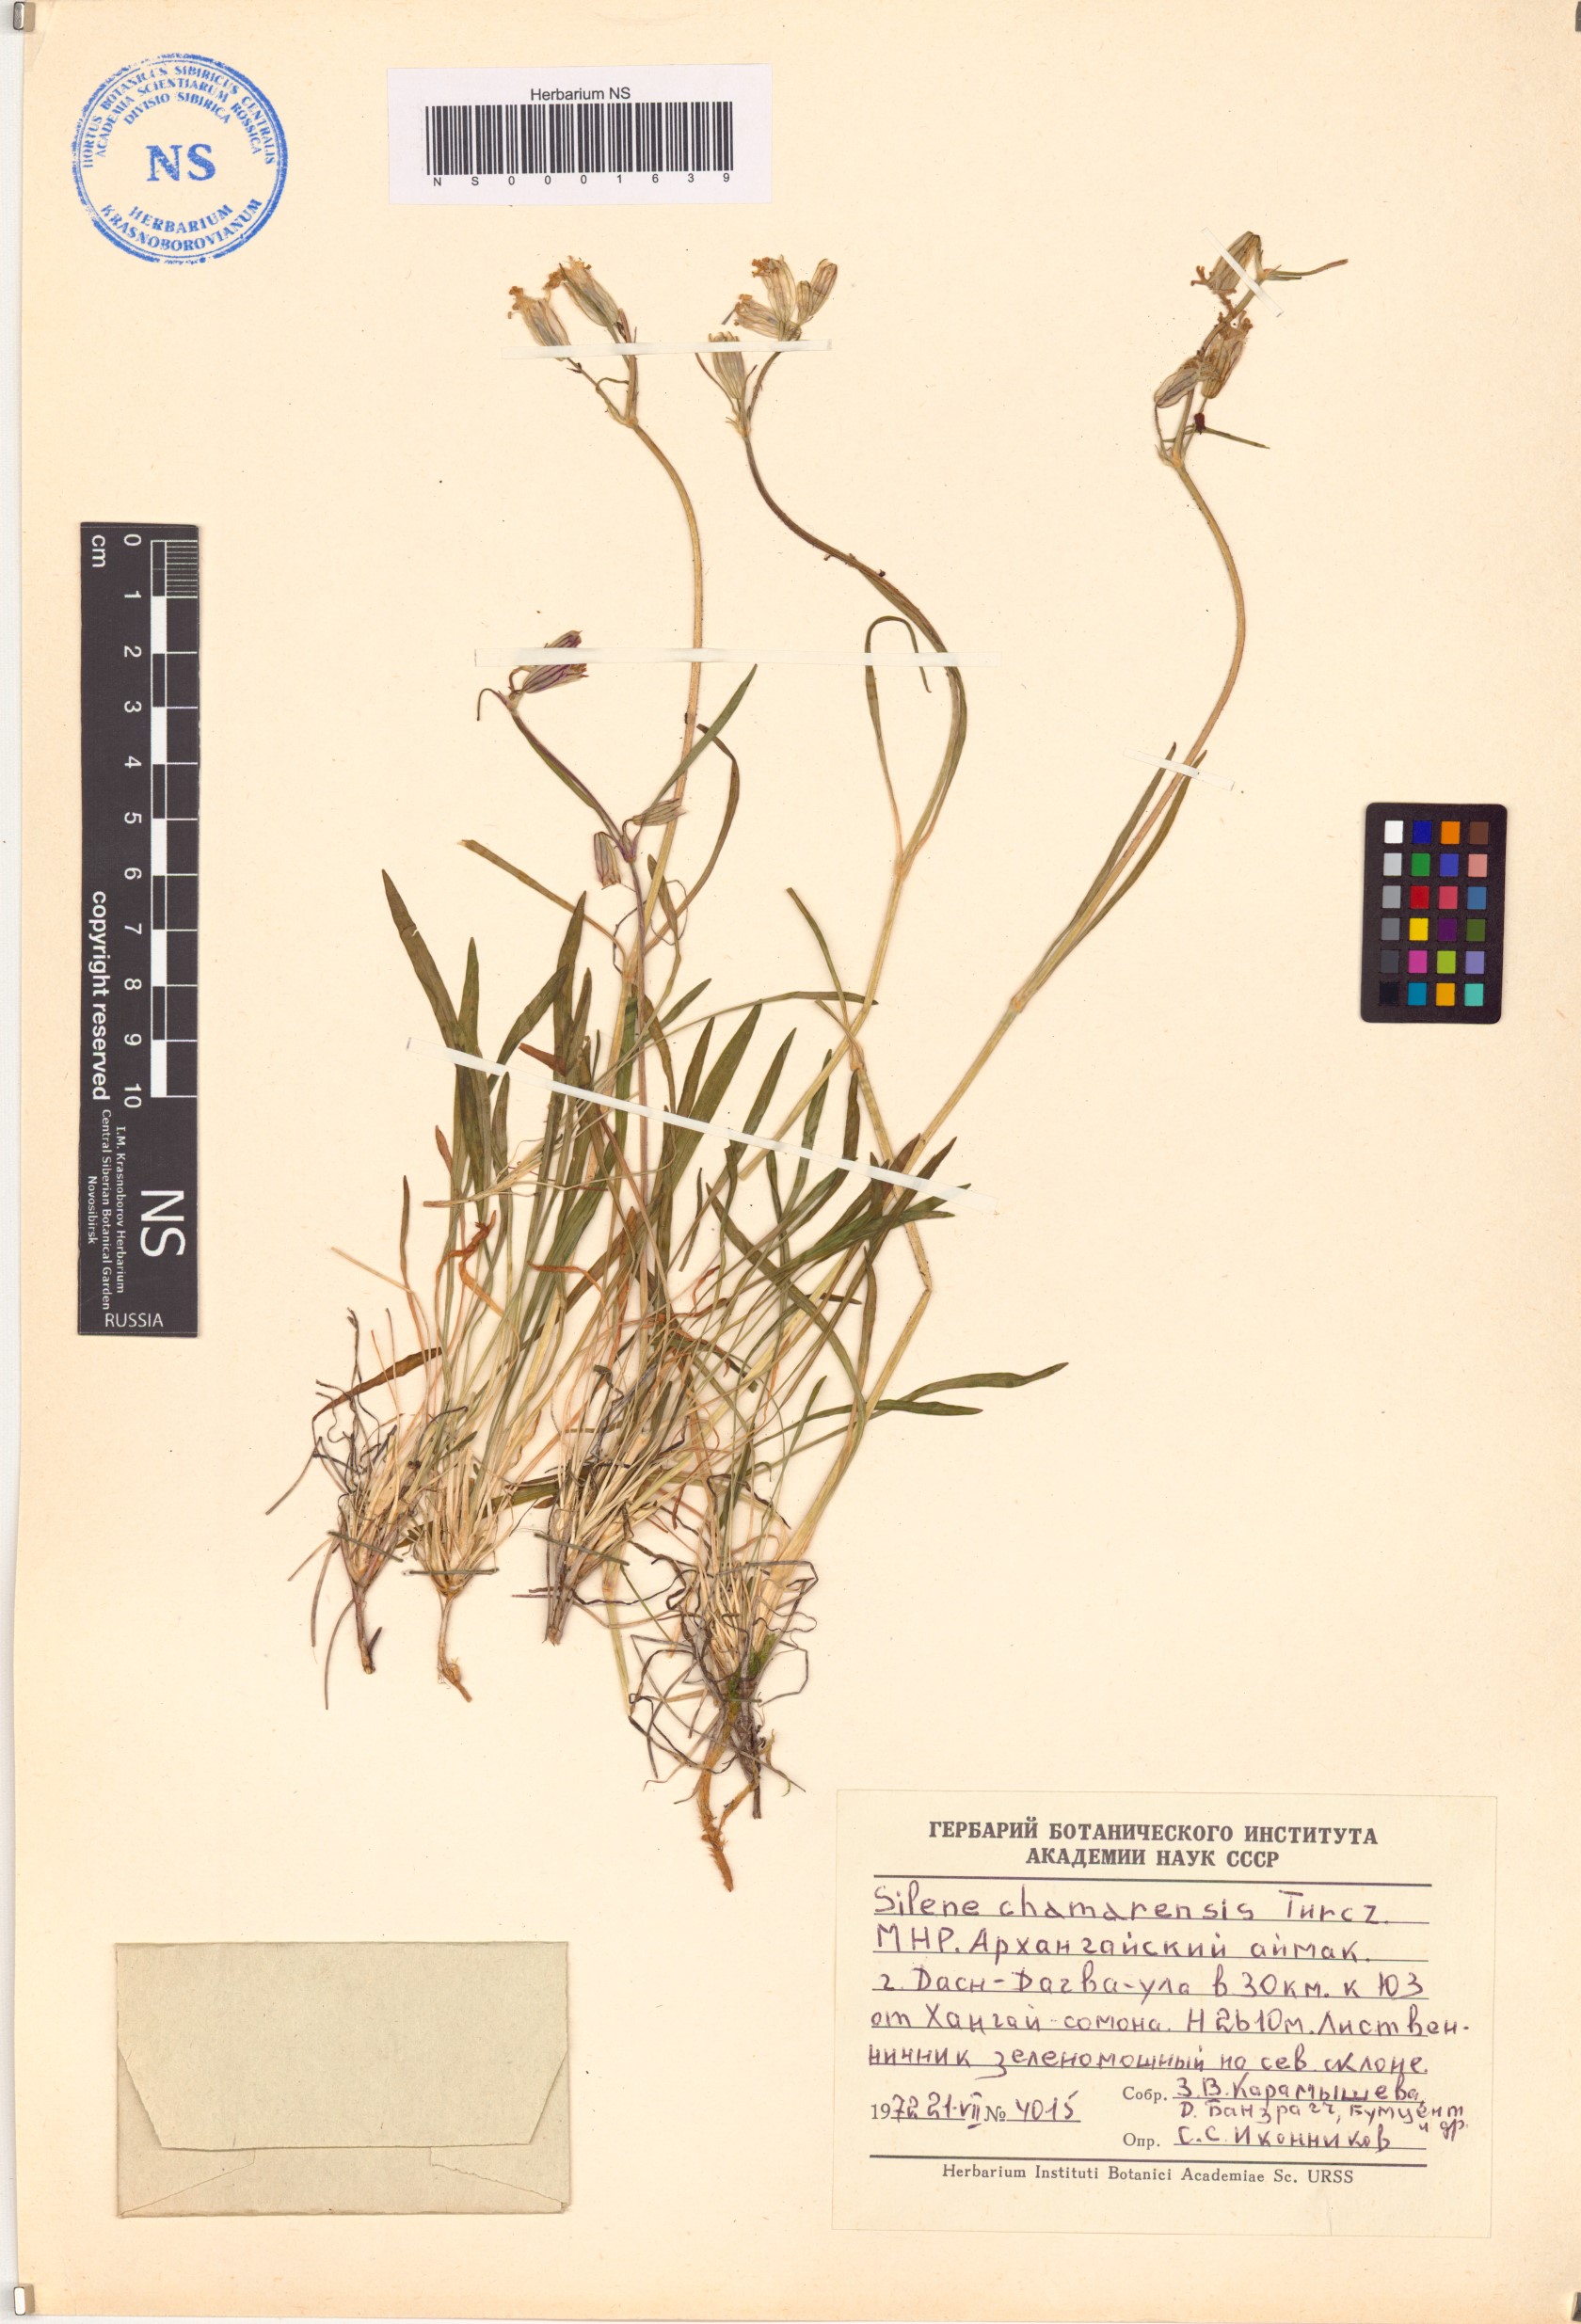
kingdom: Plantae
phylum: Tracheophyta
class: Magnoliopsida
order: Caryophyllales
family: Caryophyllaceae
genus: Silene
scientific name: Silene chamarensis
